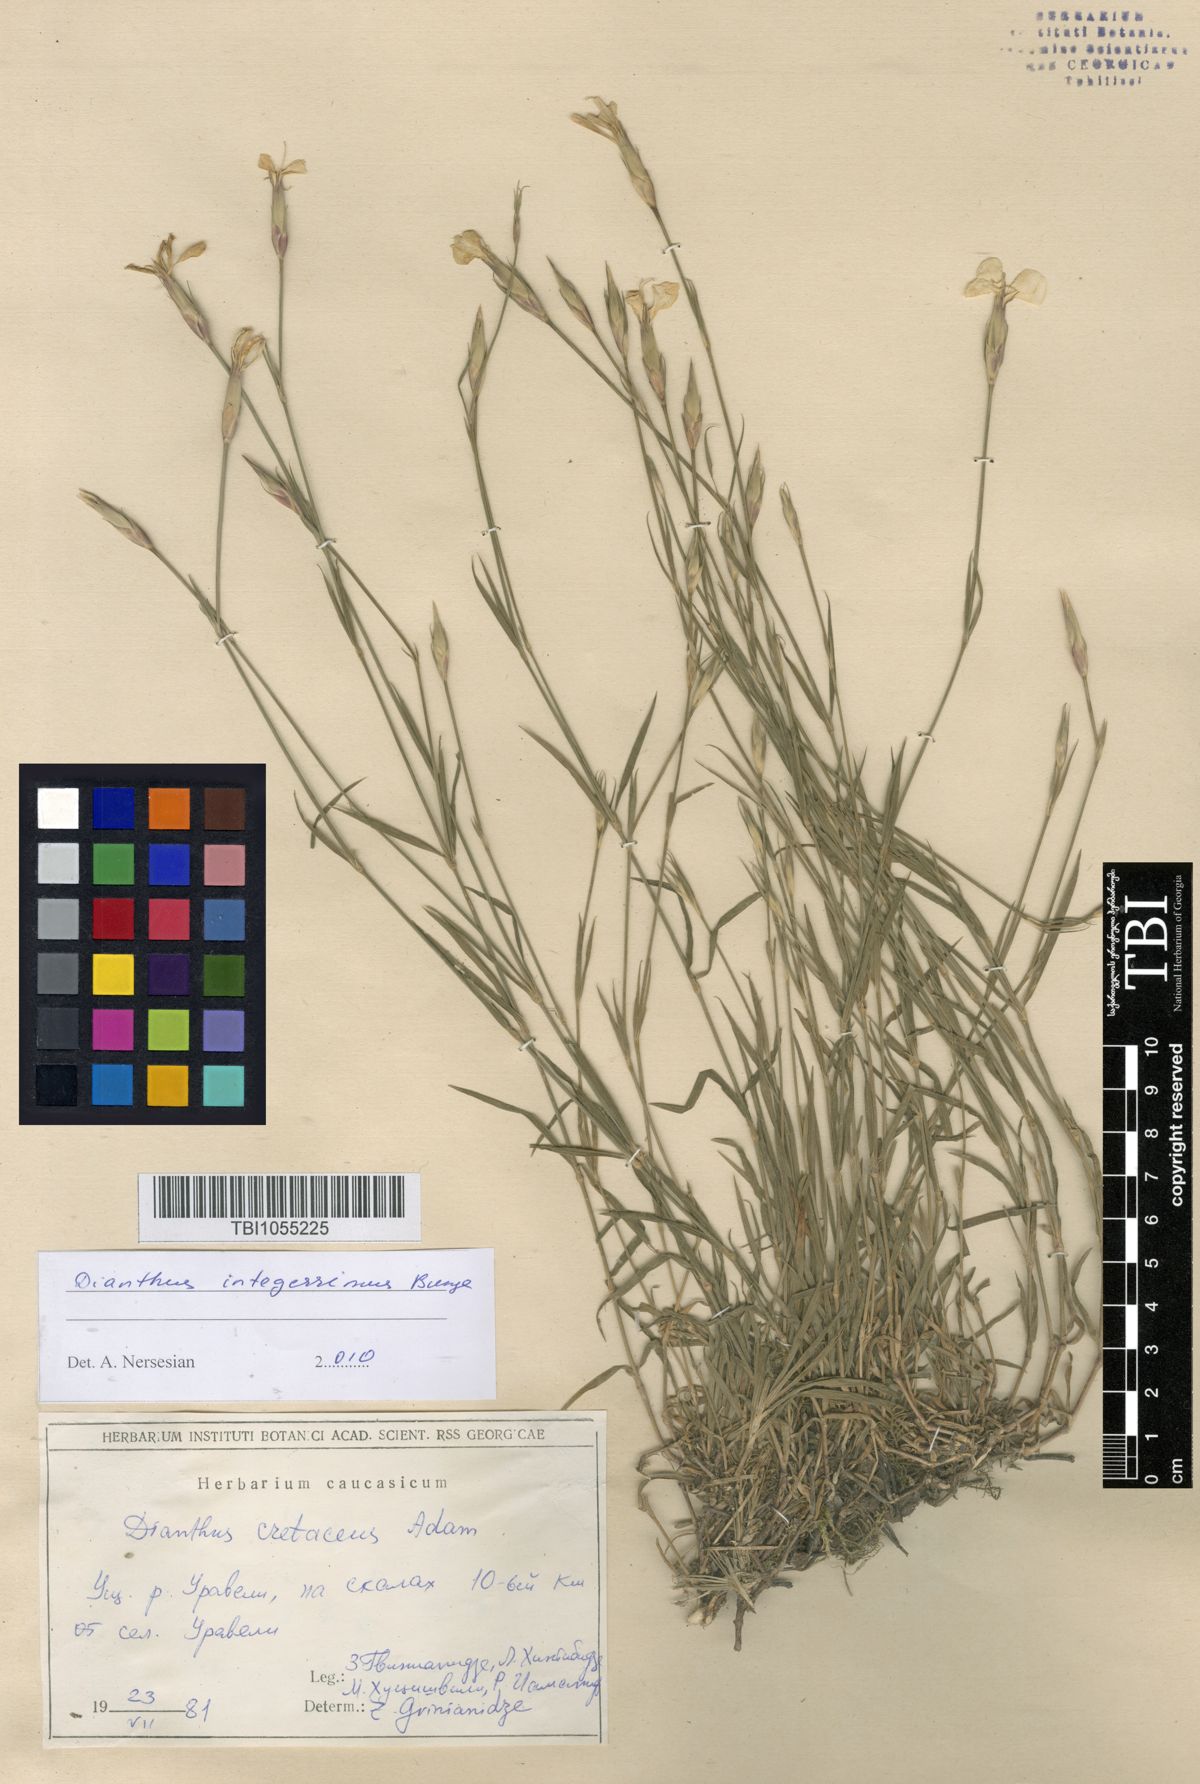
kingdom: Plantae
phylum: Tracheophyta
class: Magnoliopsida
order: Caryophyllales
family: Caryophyllaceae
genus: Dianthus
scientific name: Dianthus cretaceus
